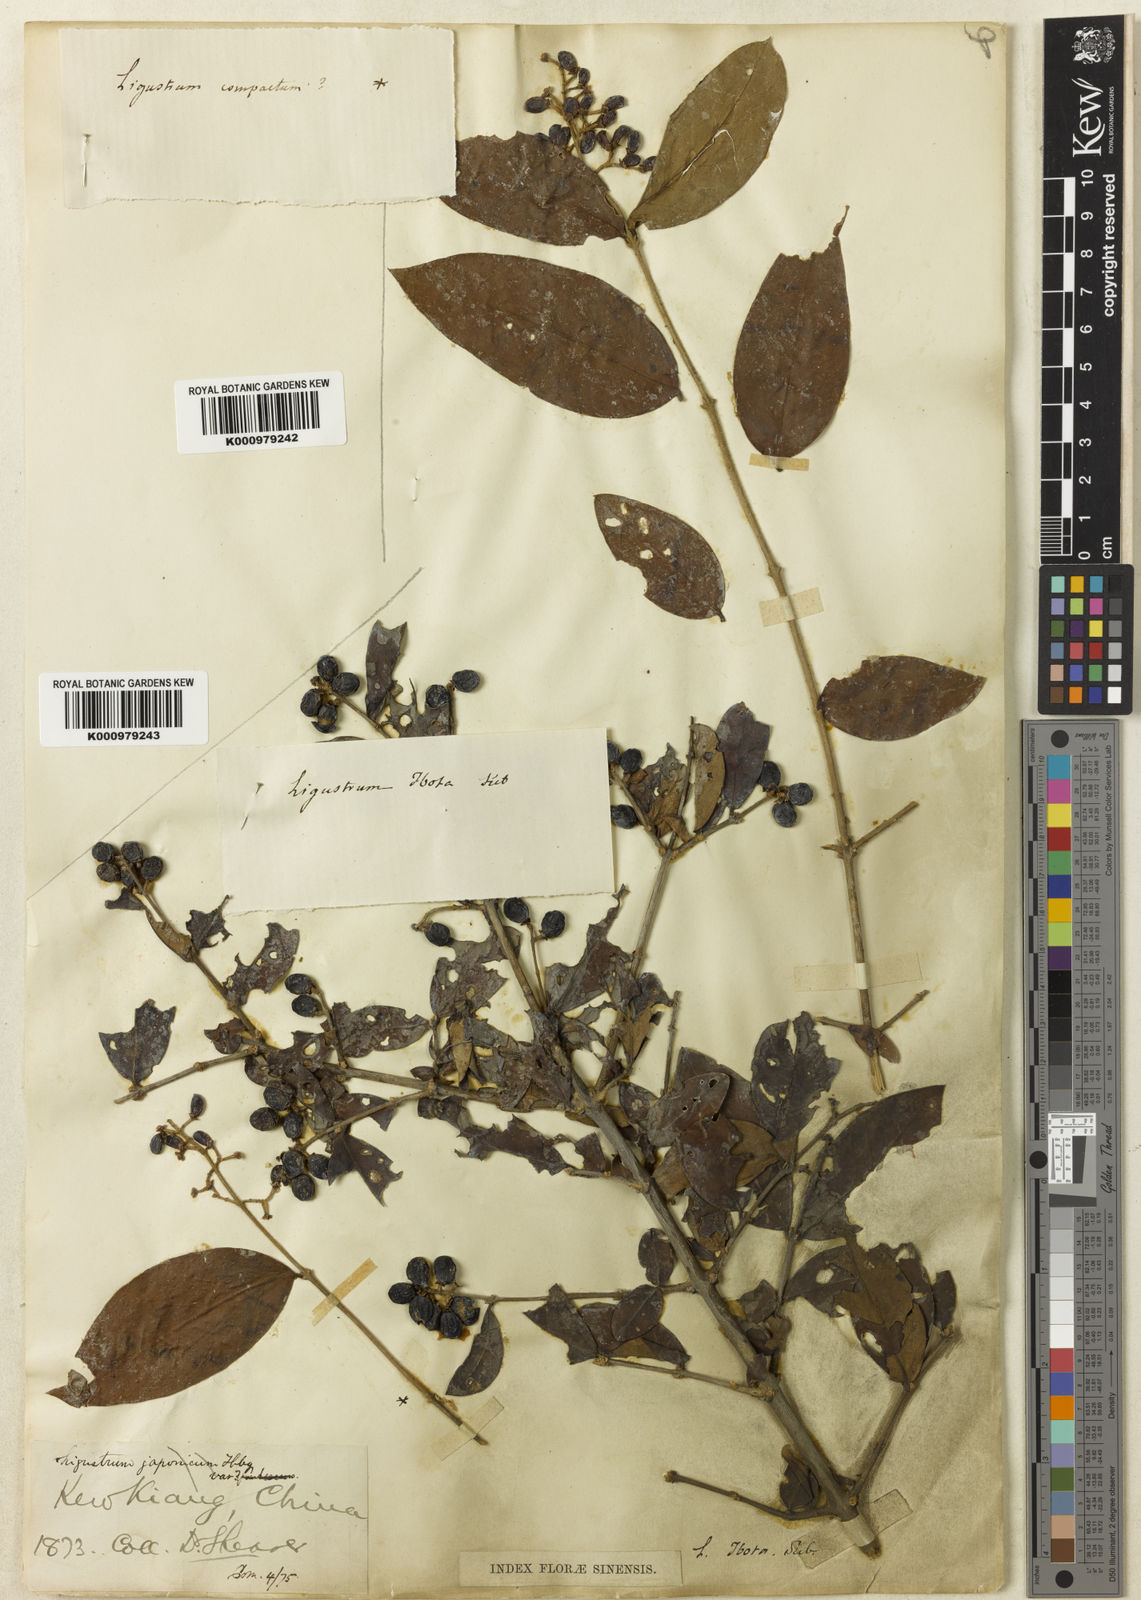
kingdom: Plantae
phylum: Tracheophyta
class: Magnoliopsida
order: Lamiales
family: Oleaceae
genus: Ligustrum
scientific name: Ligustrum leucanthum
